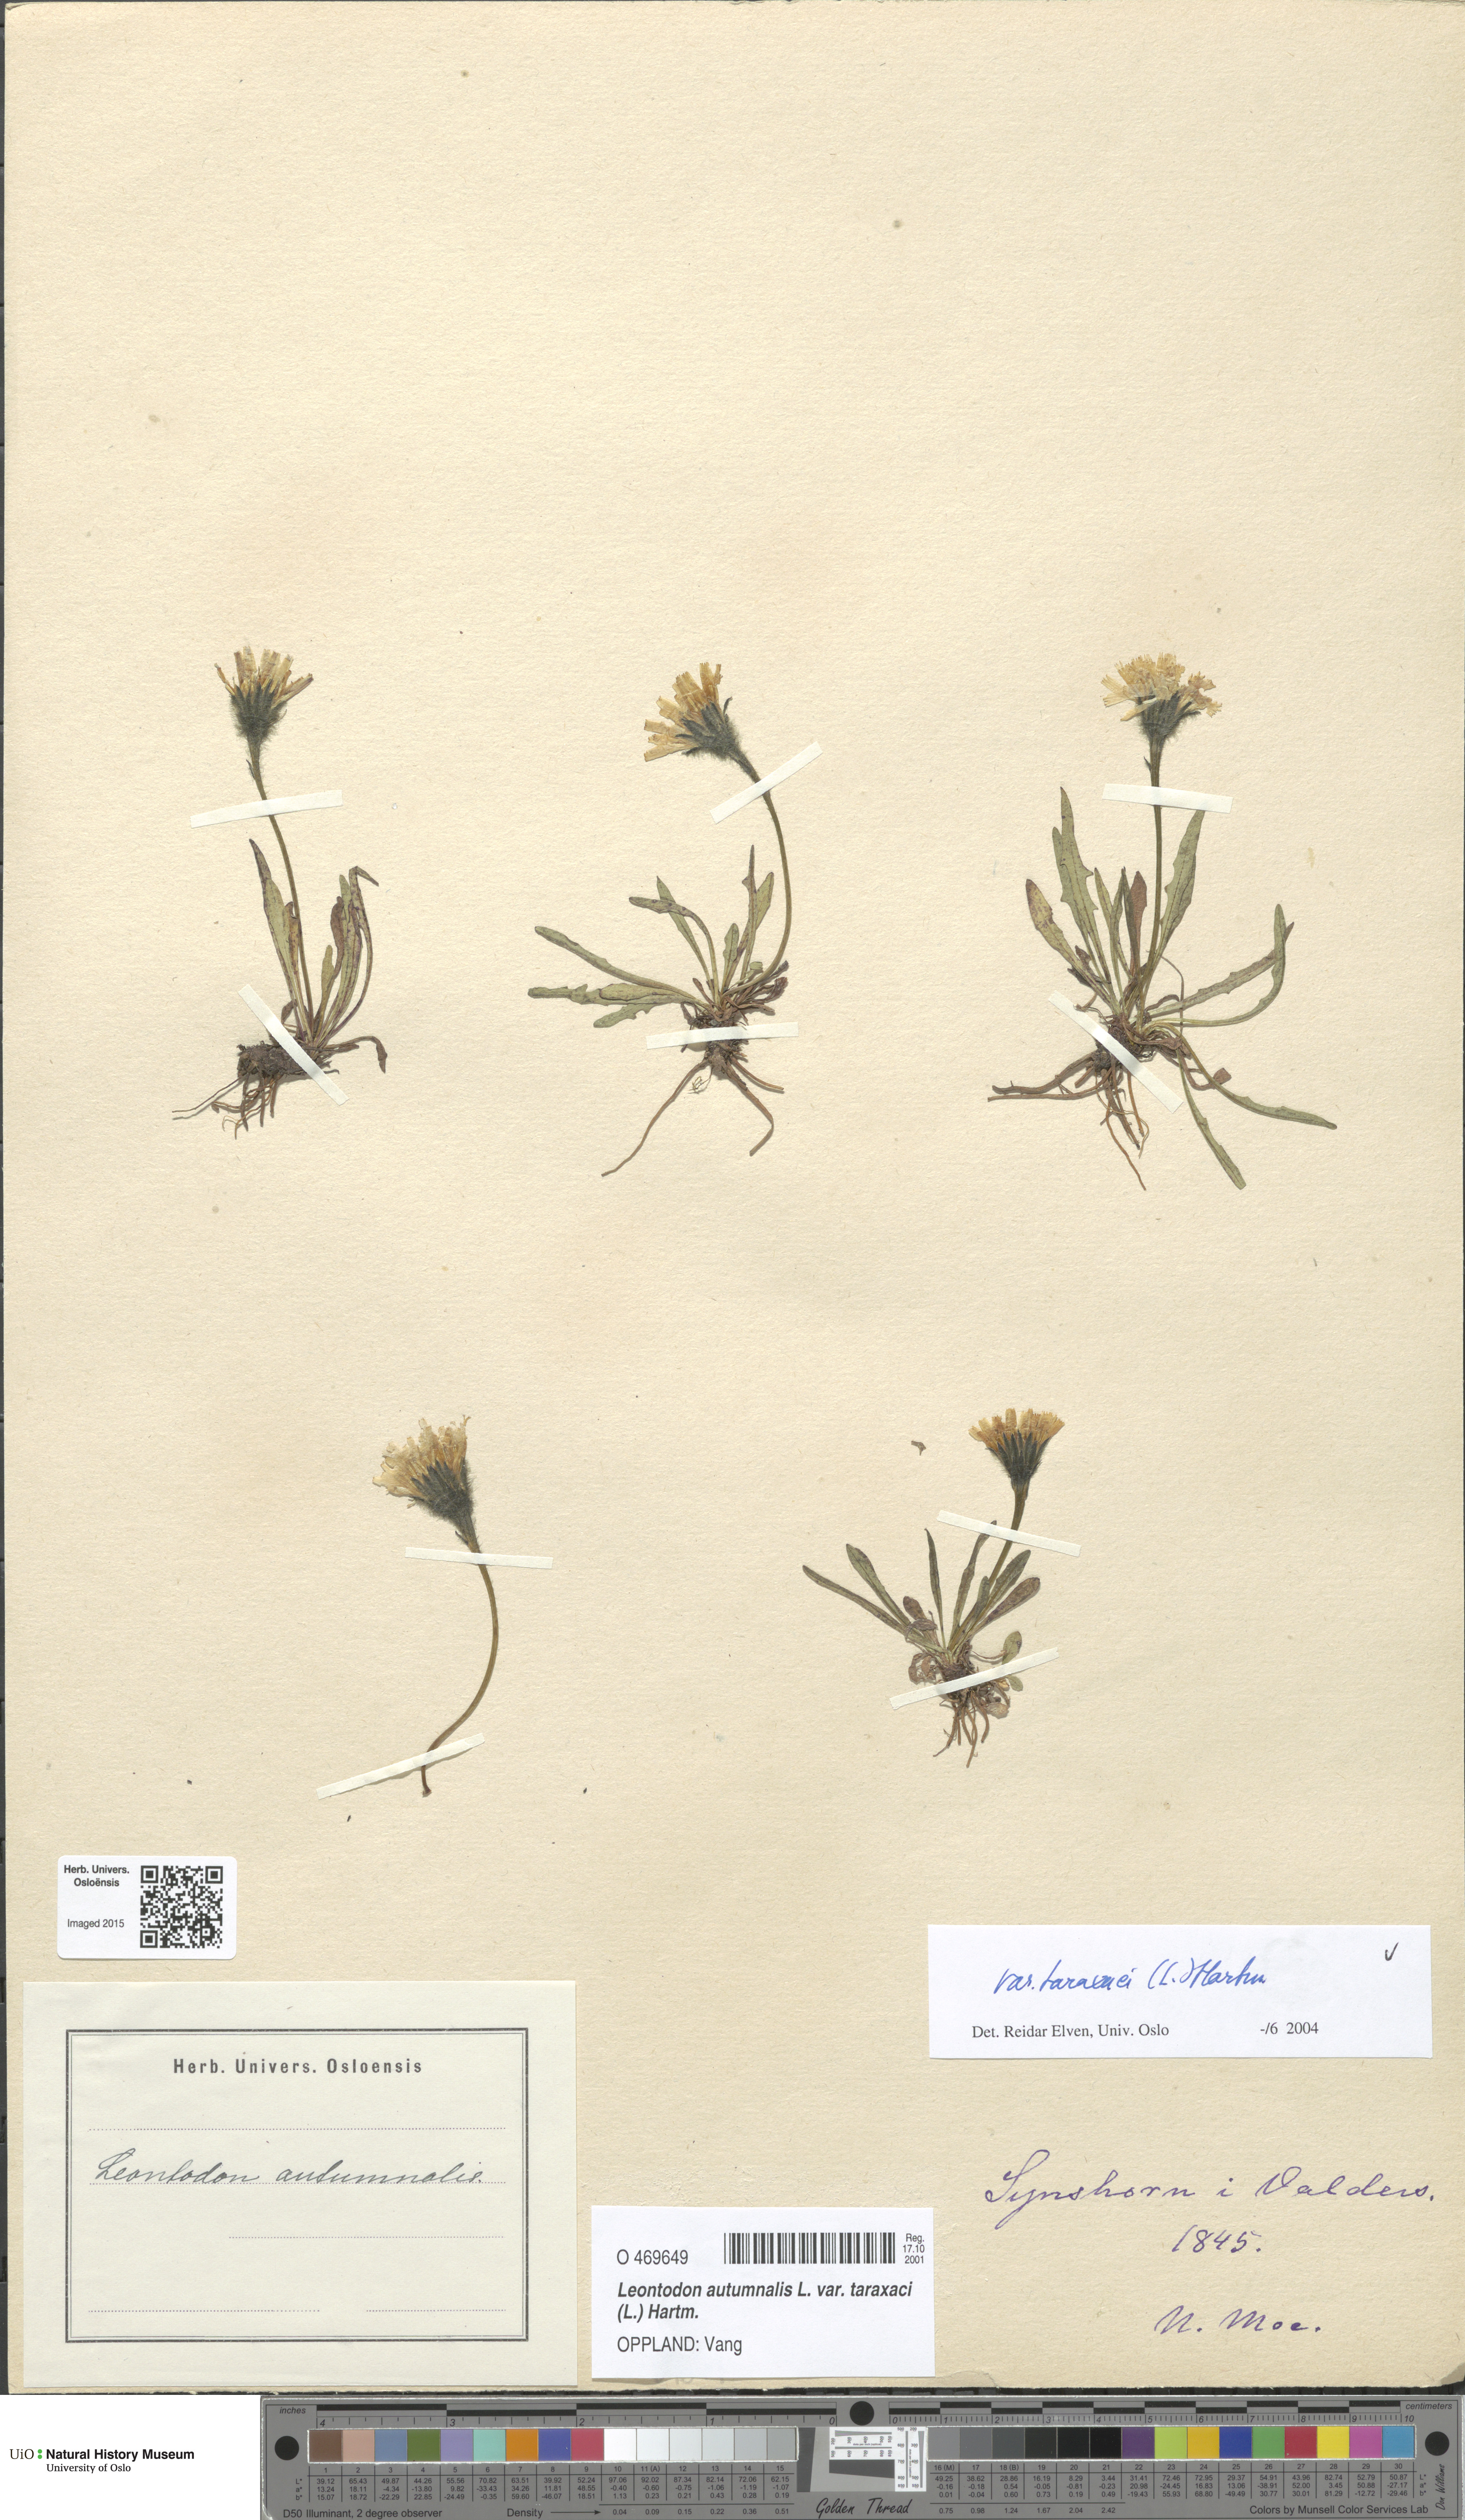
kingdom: Plantae
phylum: Tracheophyta
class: Magnoliopsida
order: Asterales
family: Asteraceae
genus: Scorzoneroides
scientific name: Scorzoneroides autumnalis
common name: Autumn hawkbit
